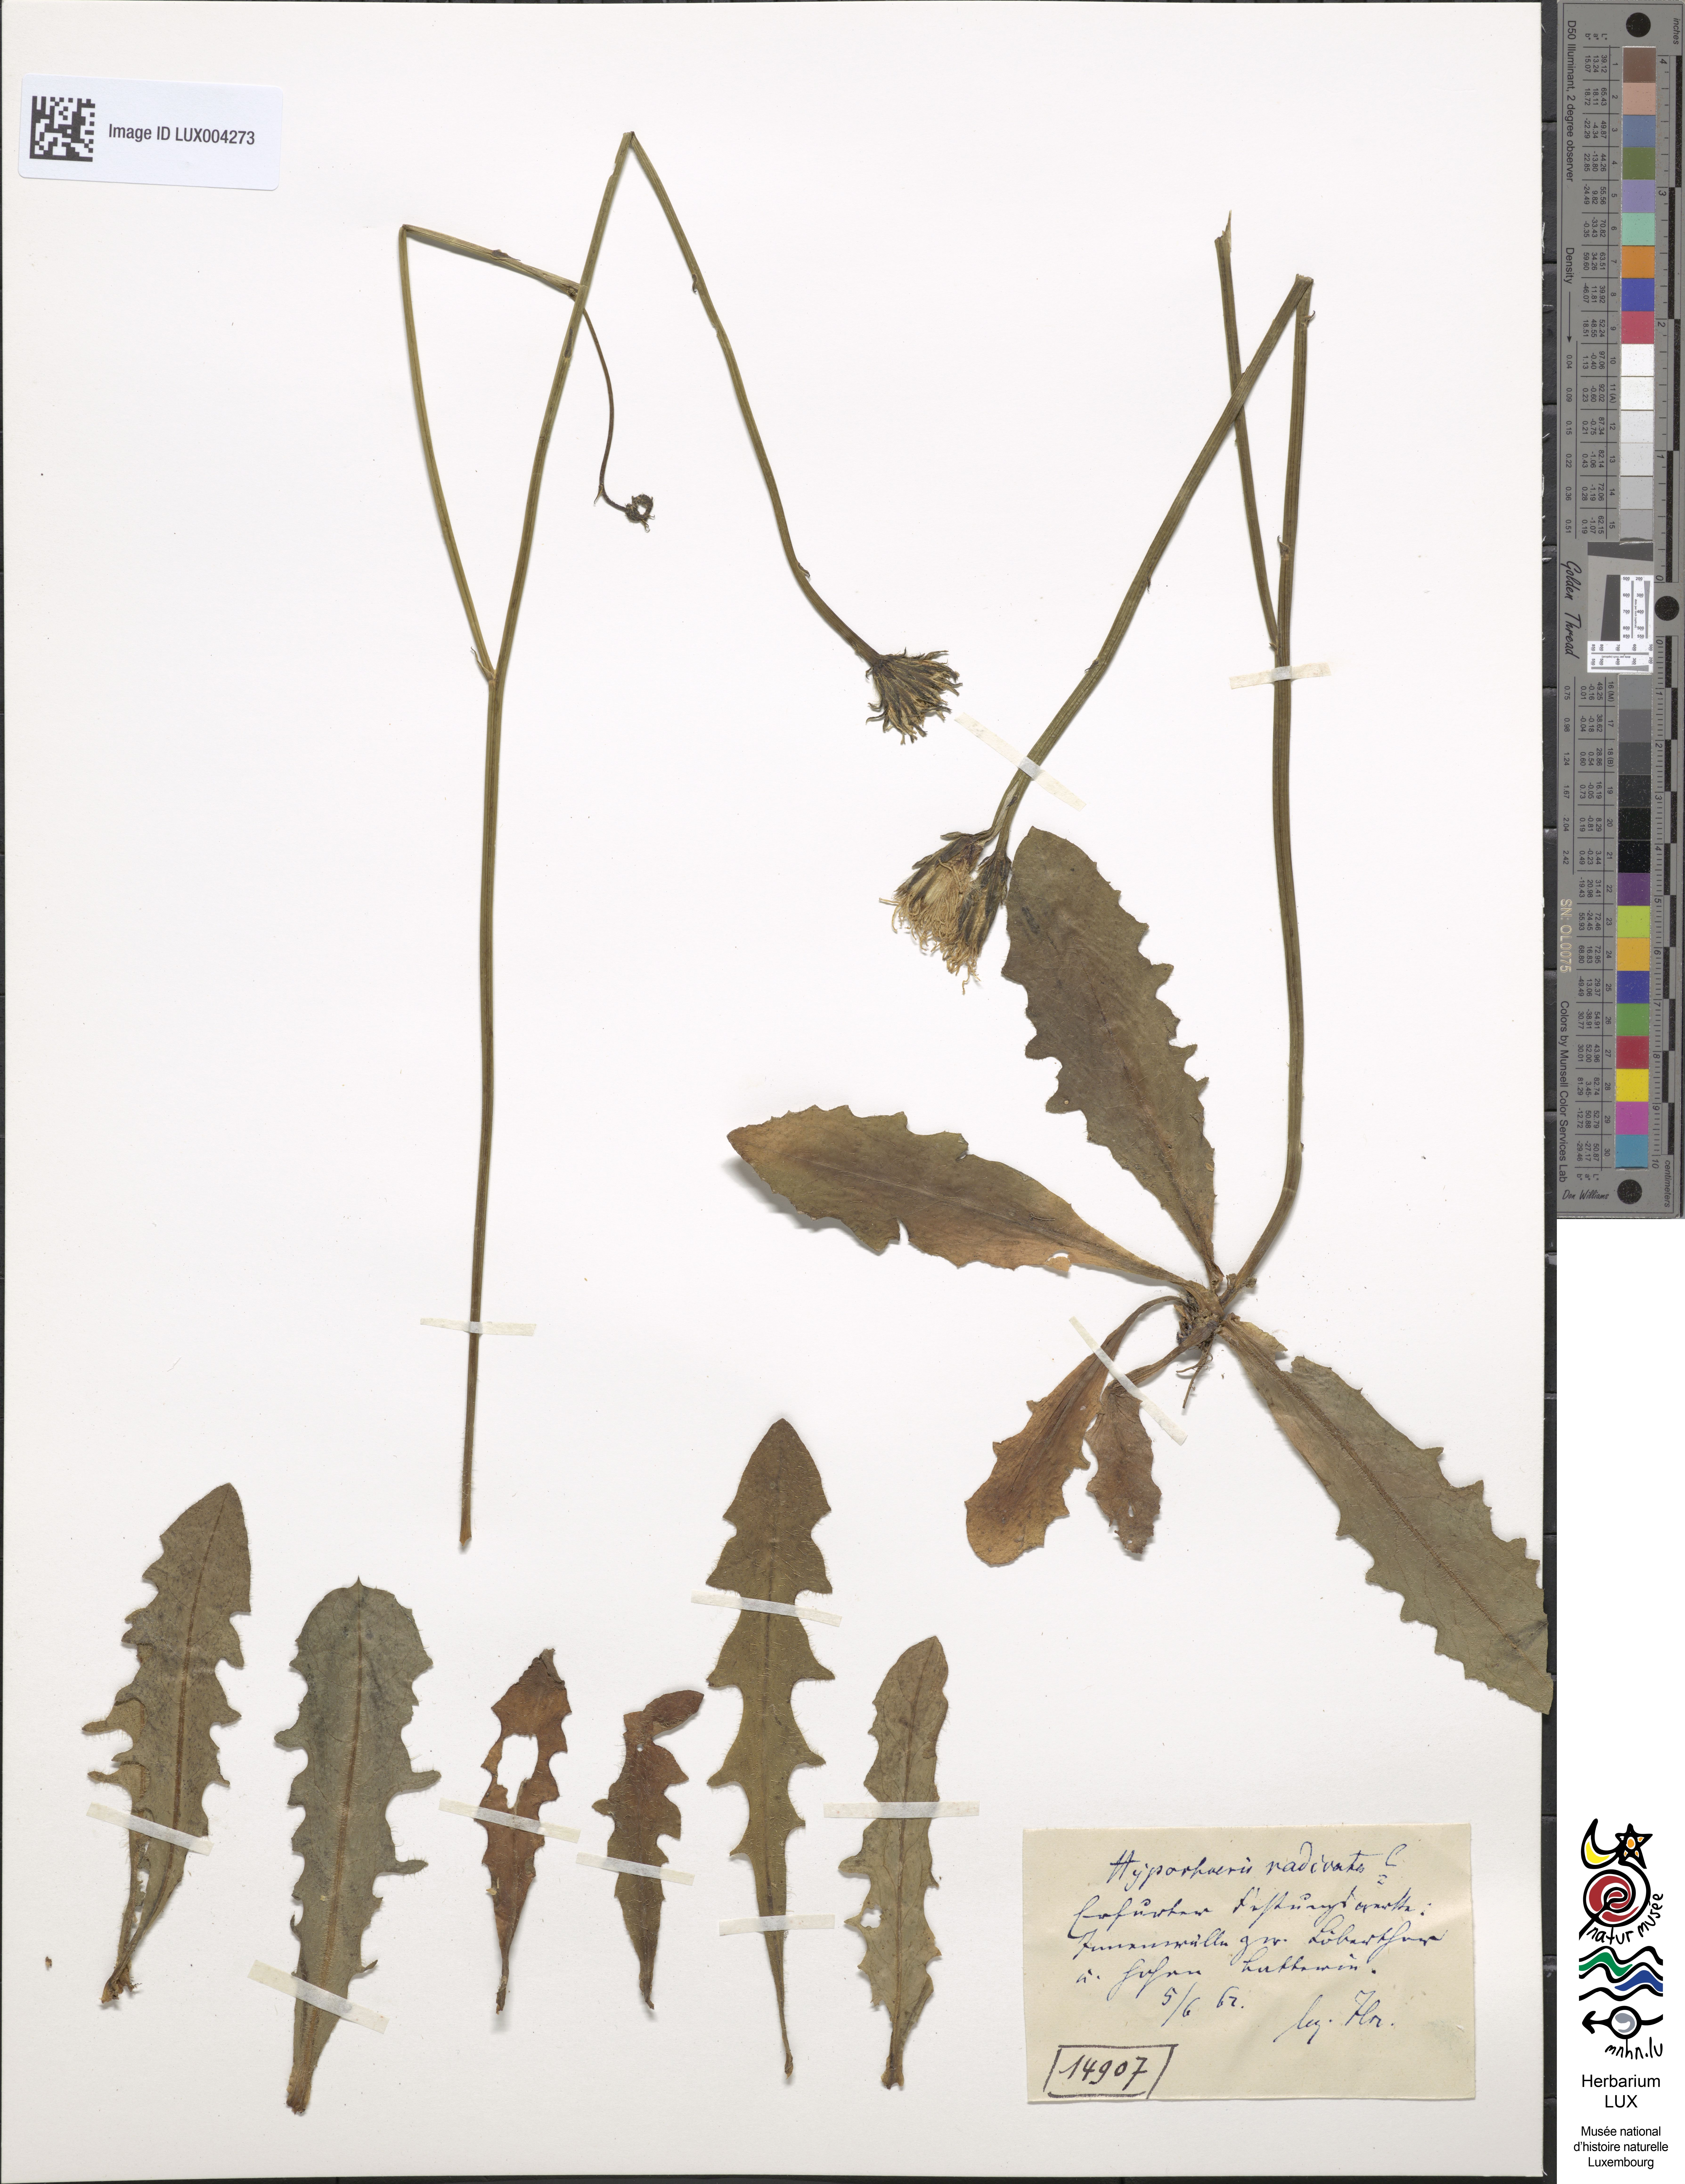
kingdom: Plantae
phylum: Tracheophyta
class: Magnoliopsida
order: Asterales
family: Asteraceae
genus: Hypochoeris
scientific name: Hypochoeris radicata
